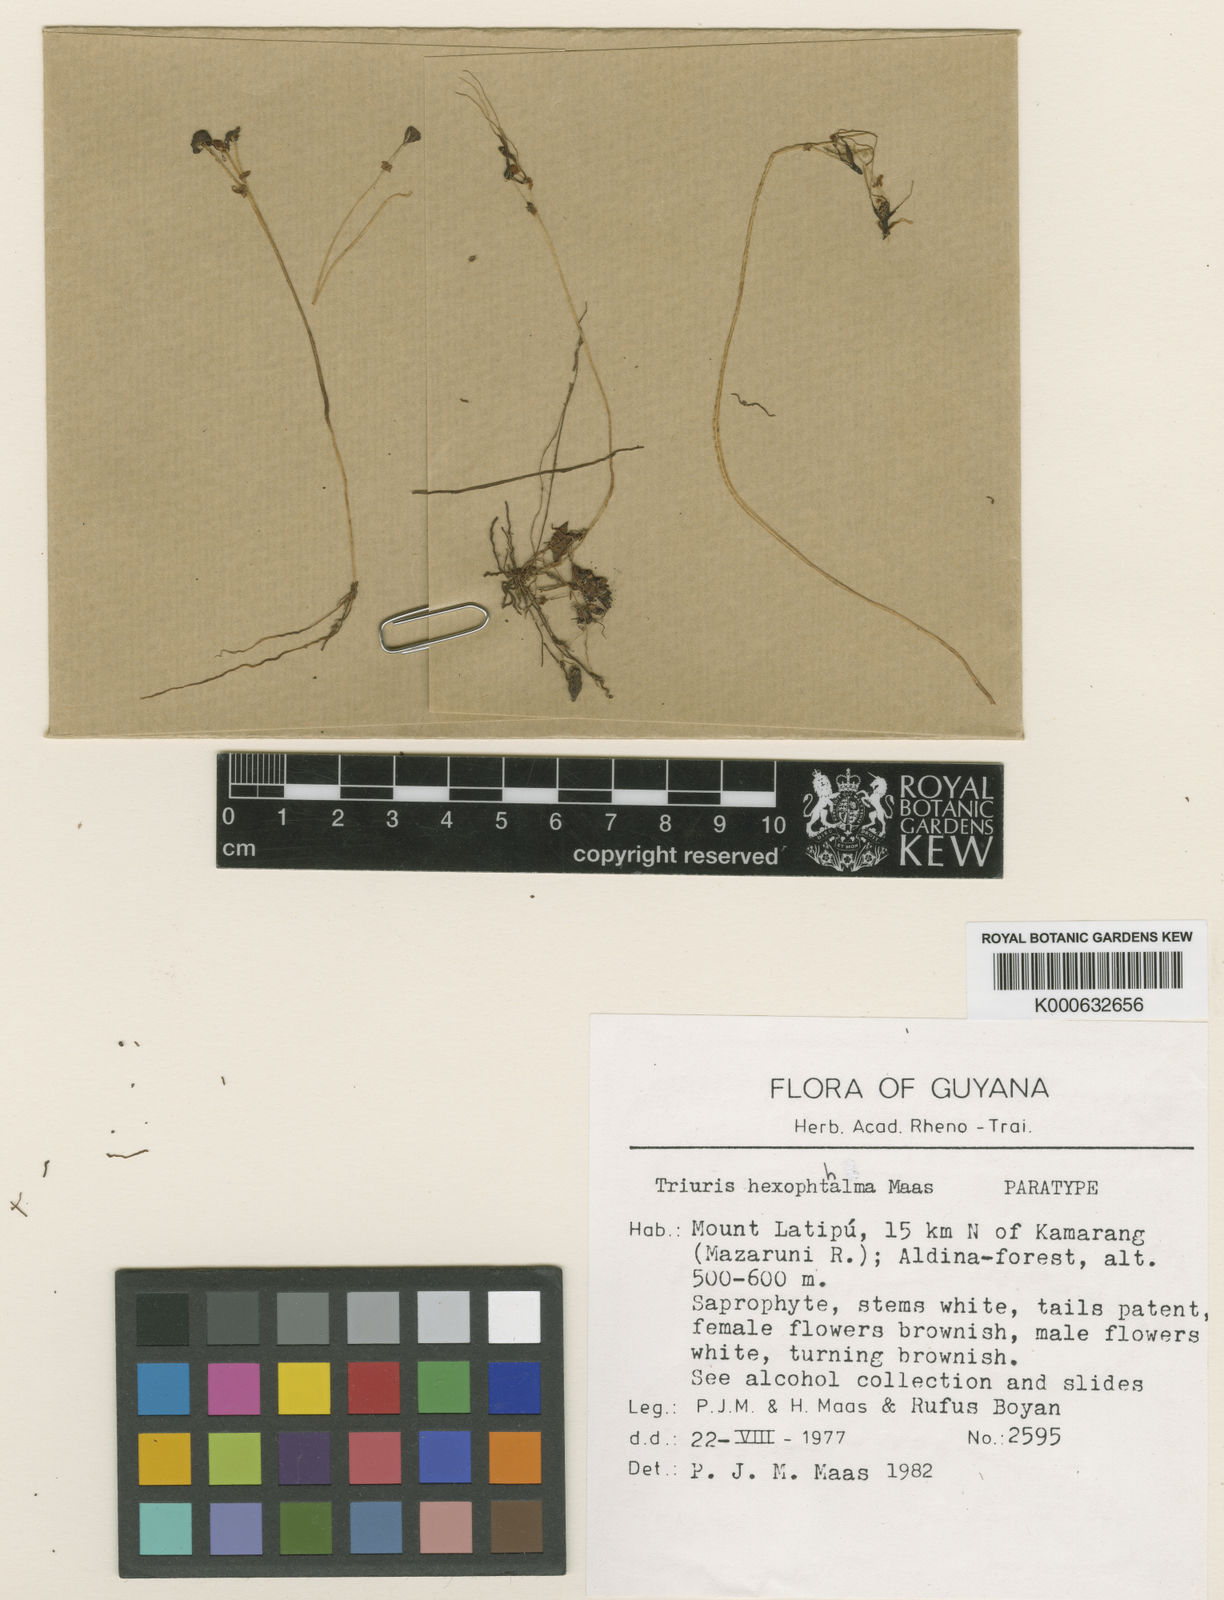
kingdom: Plantae
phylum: Tracheophyta
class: Liliopsida
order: Pandanales
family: Triuridaceae
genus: Triuris
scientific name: Triuris hexophthalma
